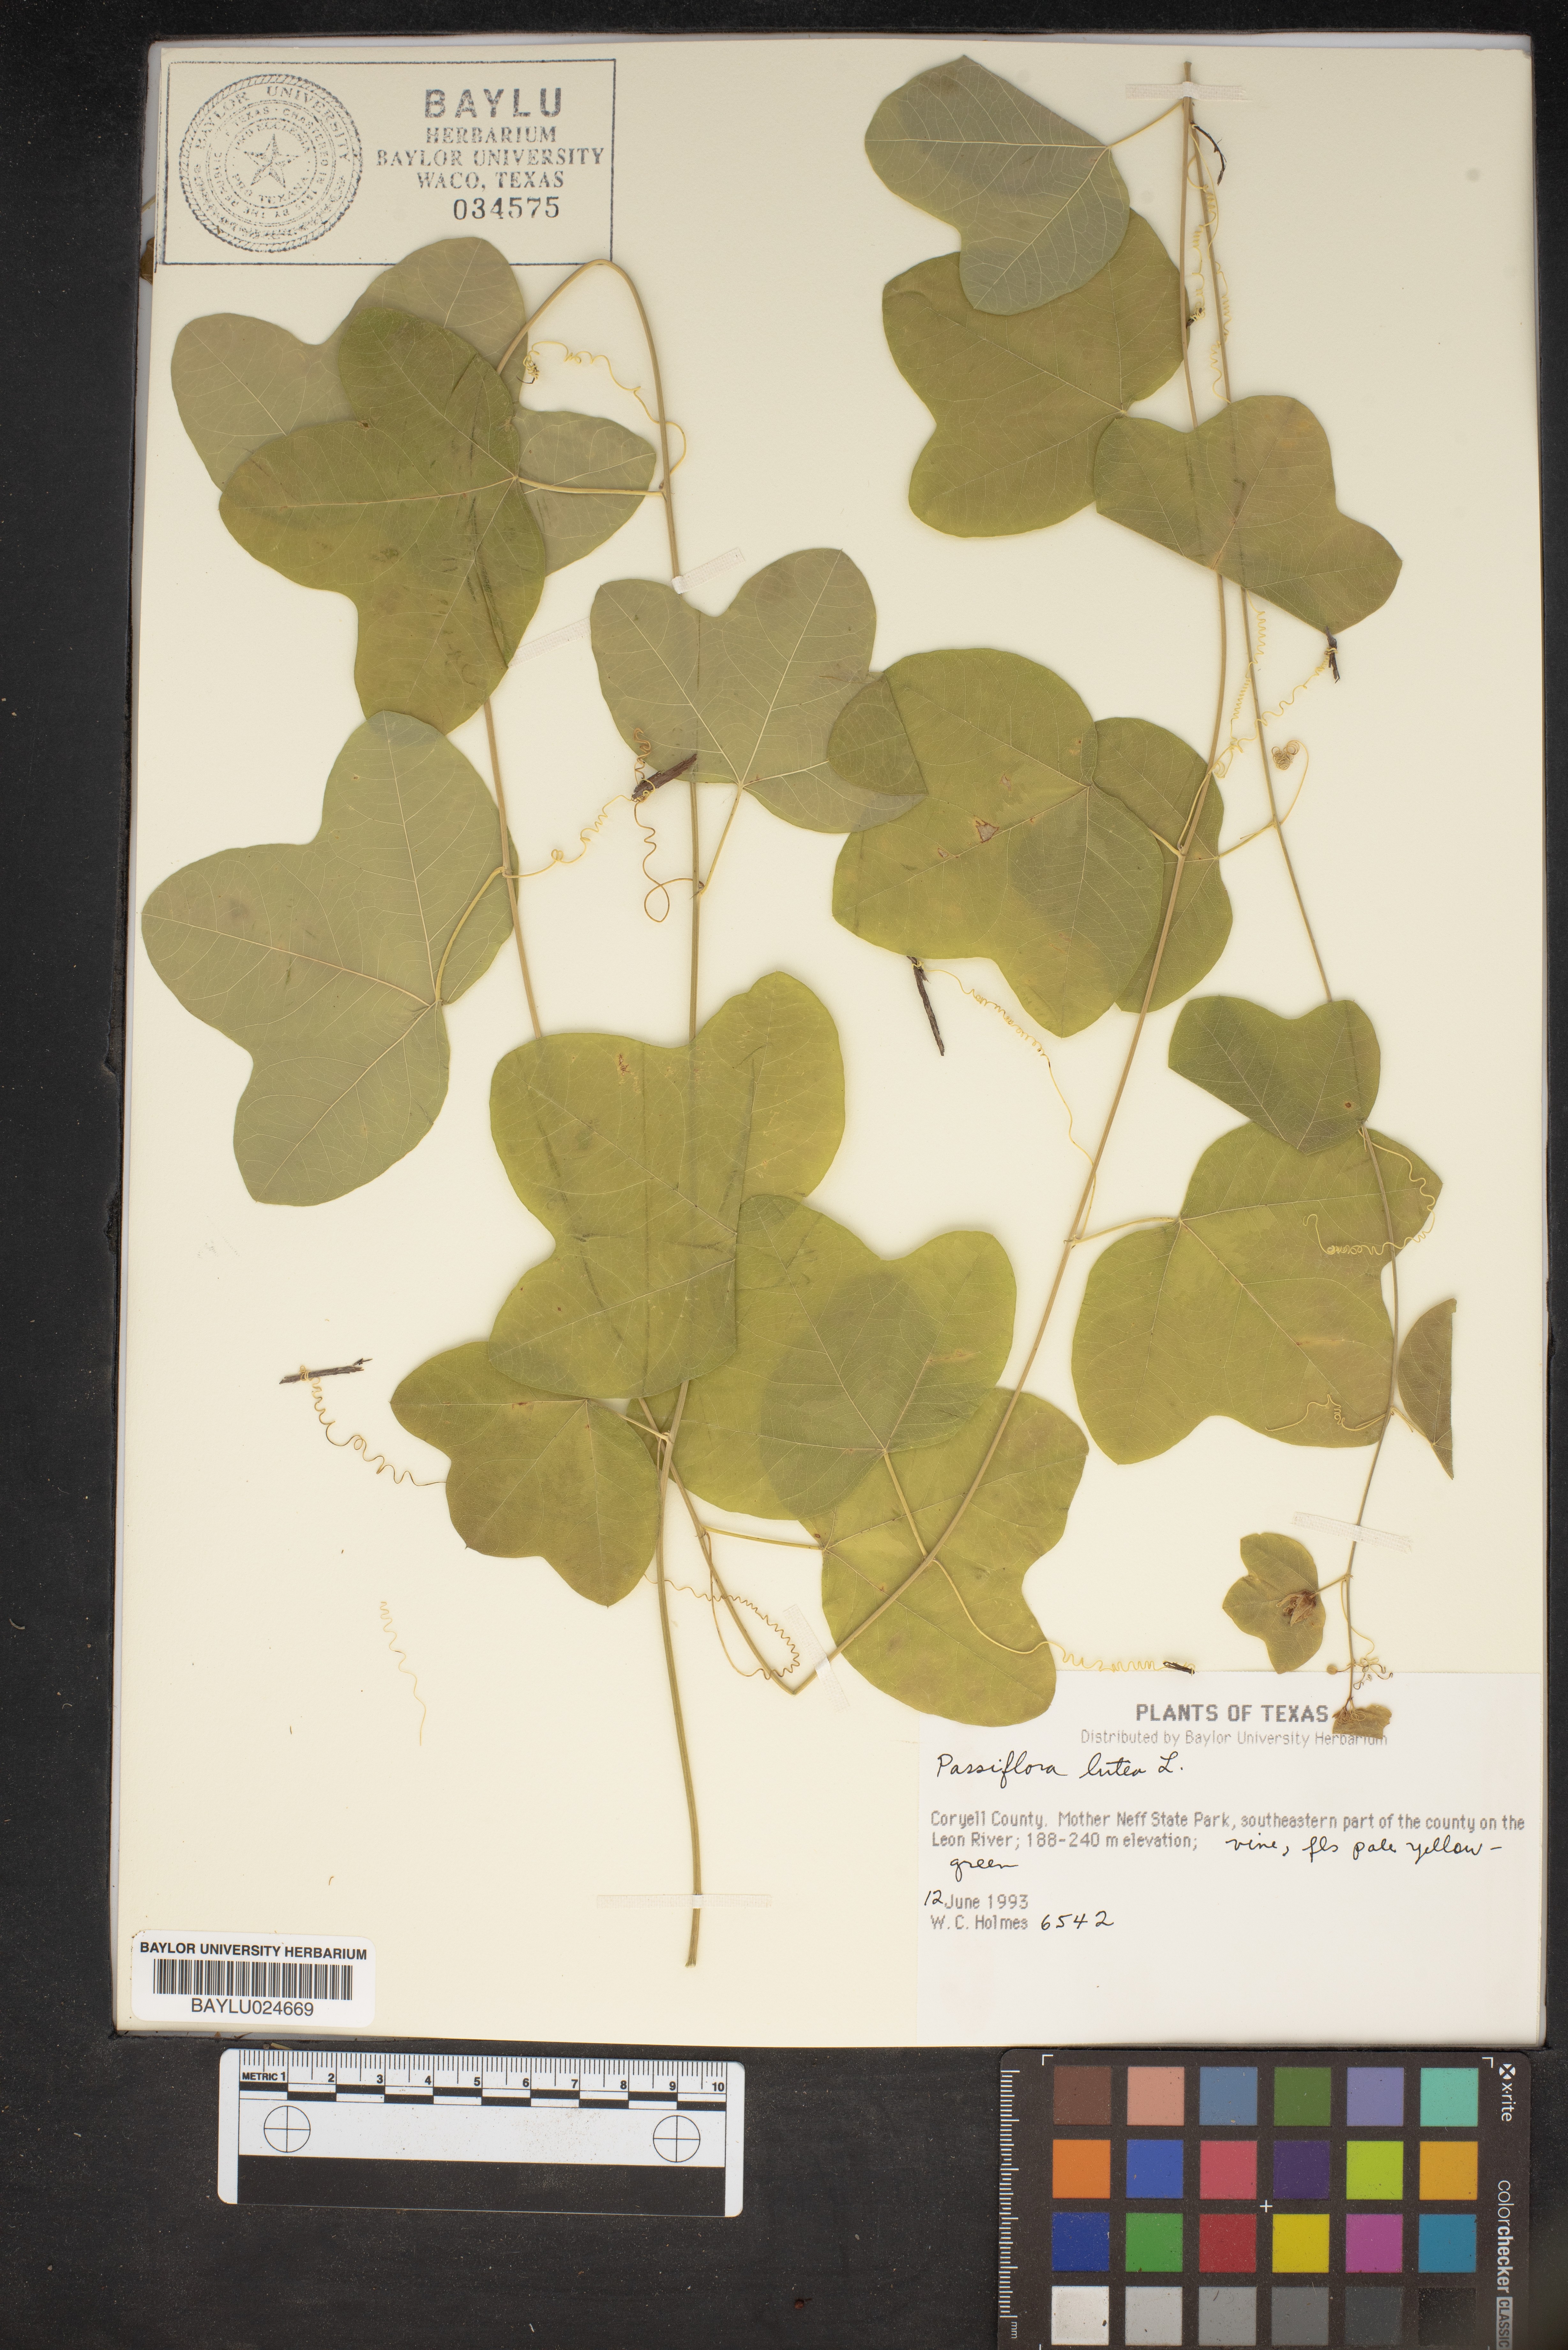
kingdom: Plantae
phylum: Tracheophyta
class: Magnoliopsida
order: Malpighiales
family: Passifloraceae
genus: Passiflora
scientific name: Passiflora lutea
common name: Yellow passionflower
